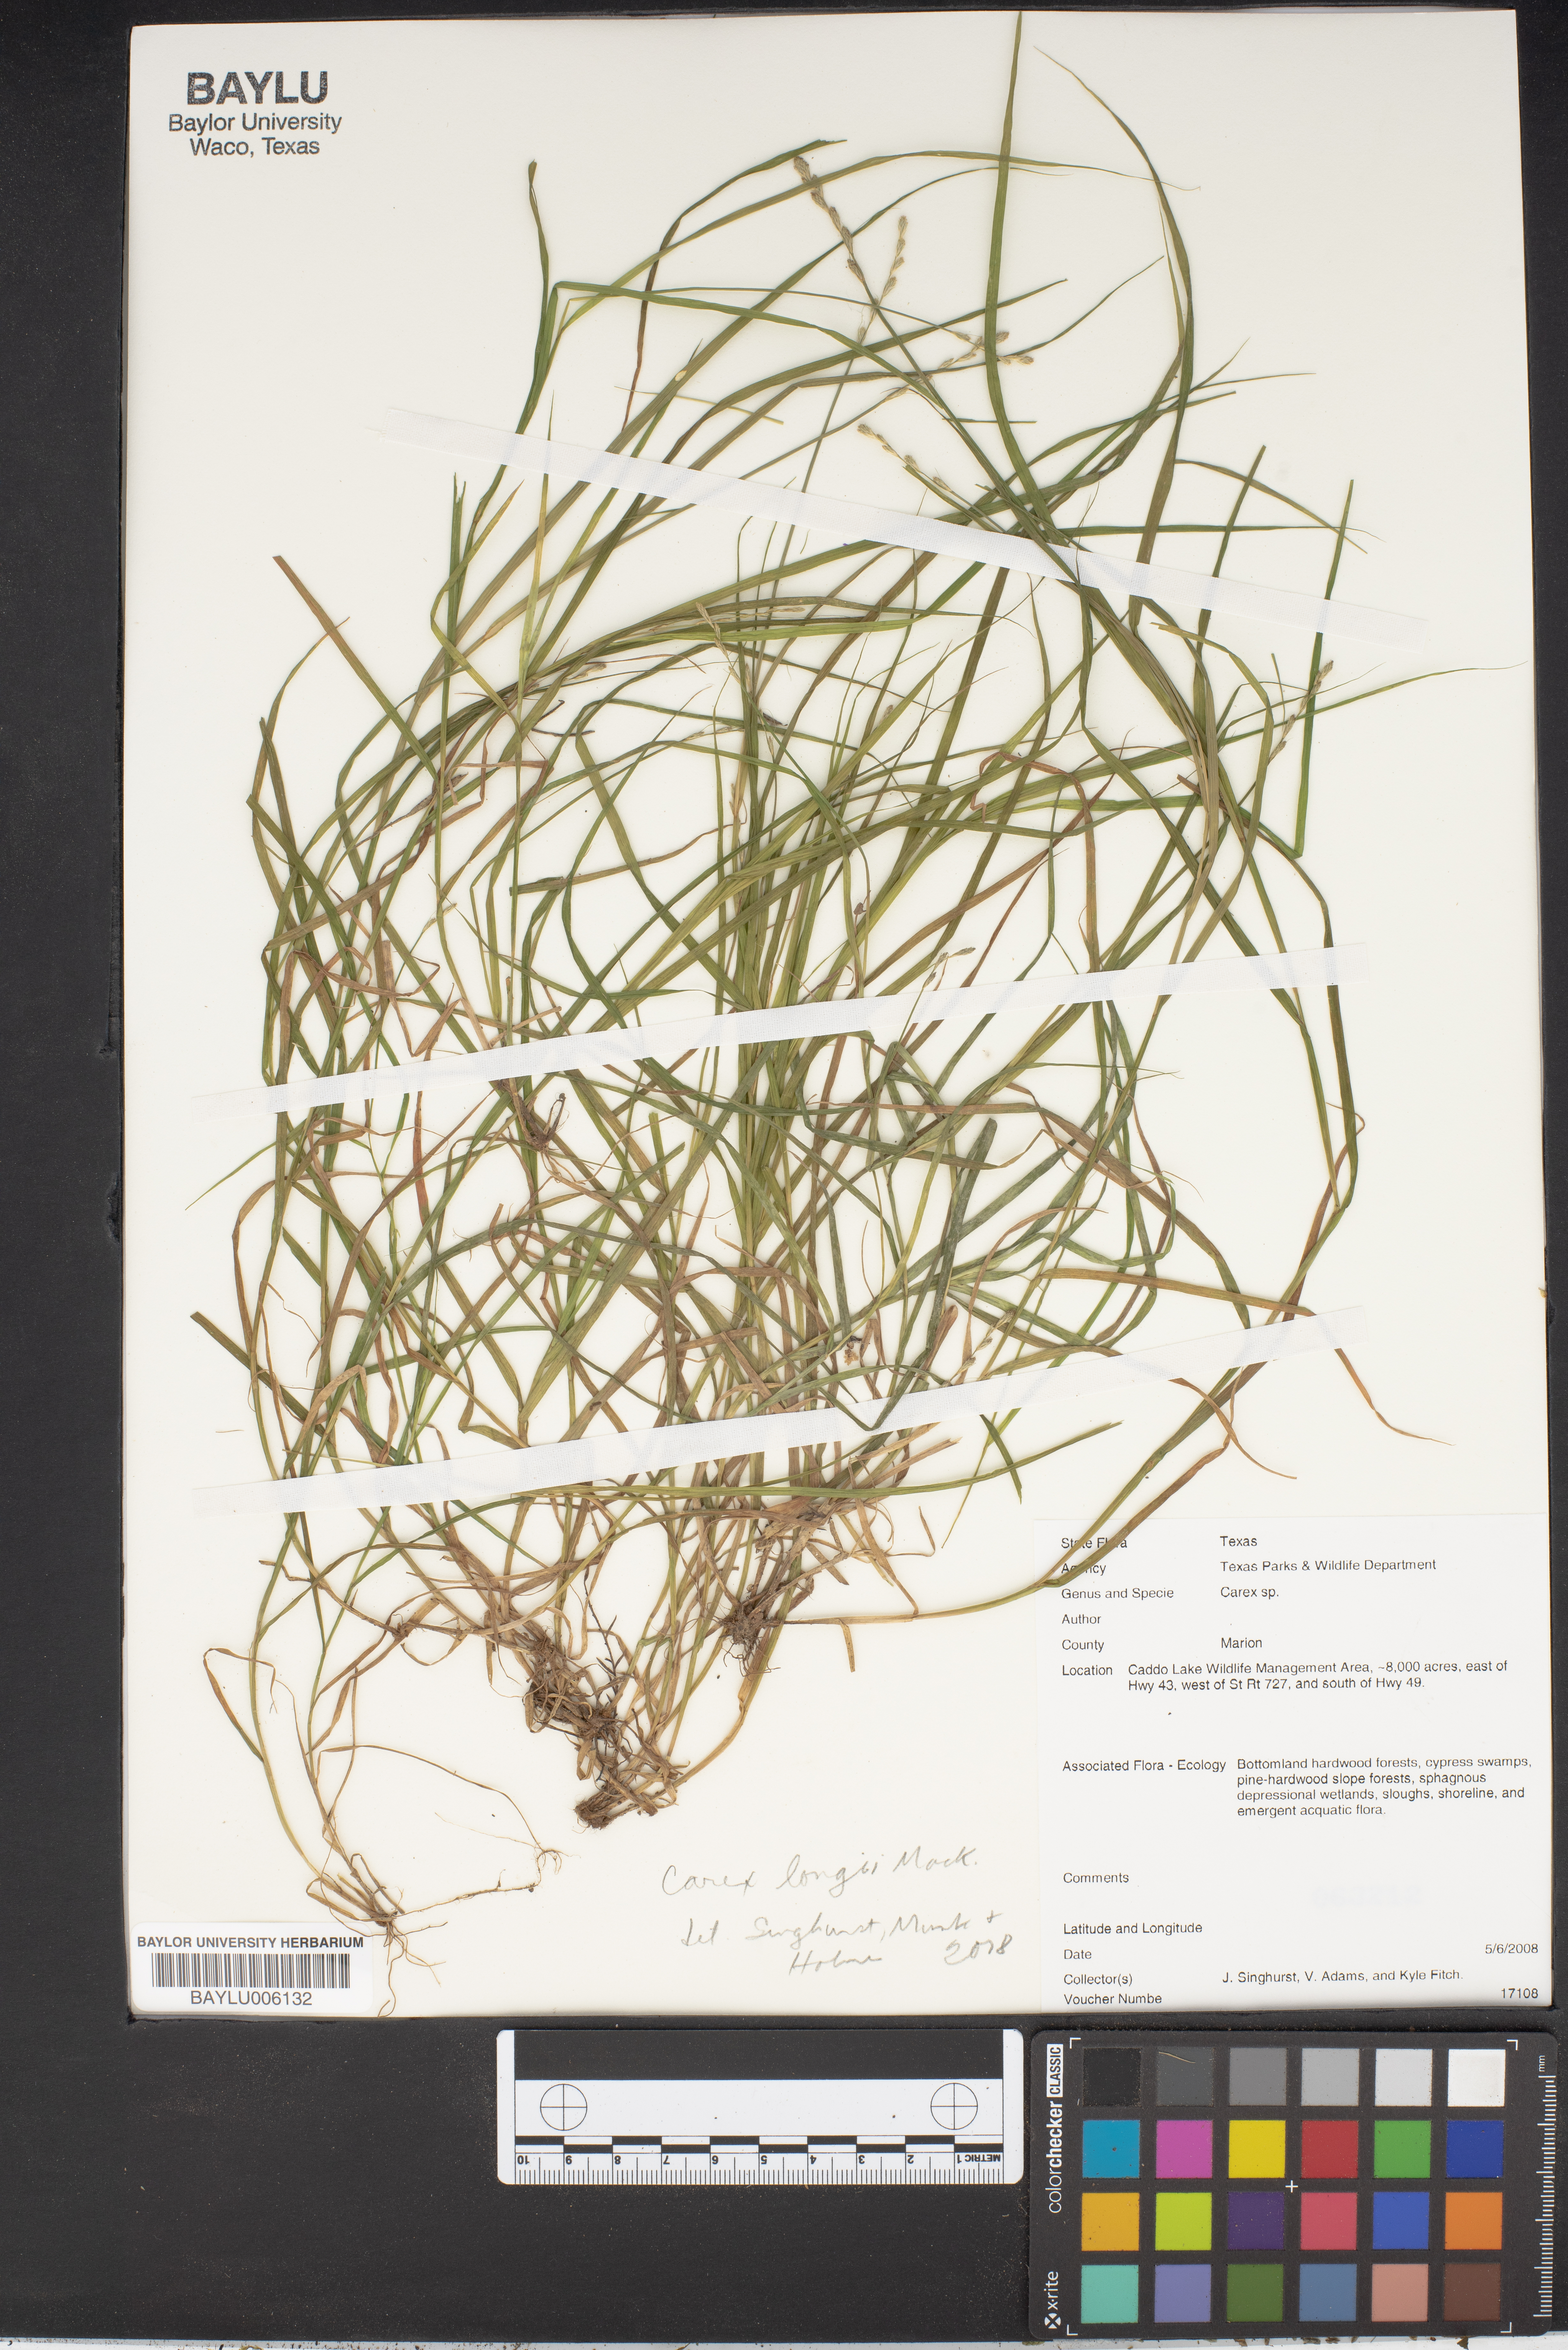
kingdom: Plantae
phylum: Tracheophyta
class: Liliopsida
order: Poales
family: Cyperaceae
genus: Carex
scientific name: Carex
